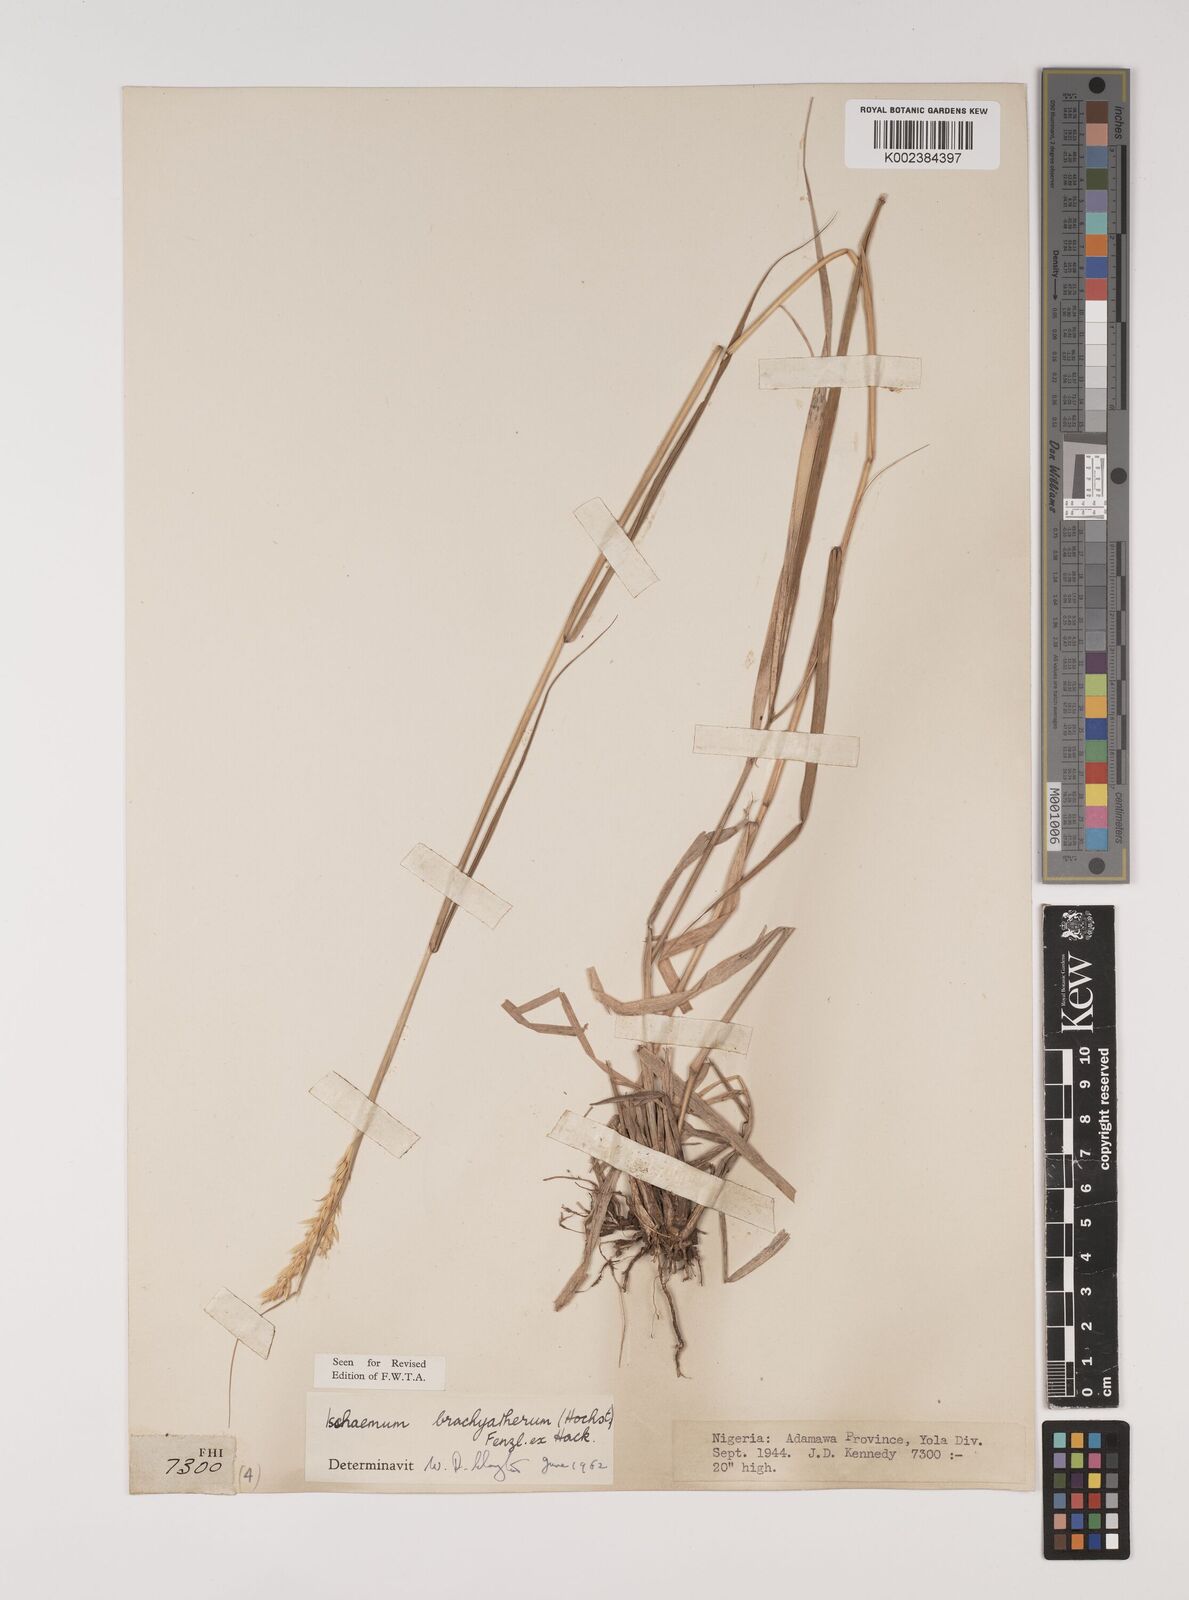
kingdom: Plantae
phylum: Tracheophyta
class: Liliopsida
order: Poales
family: Poaceae
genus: Ischaemum
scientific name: Ischaemum afrum
